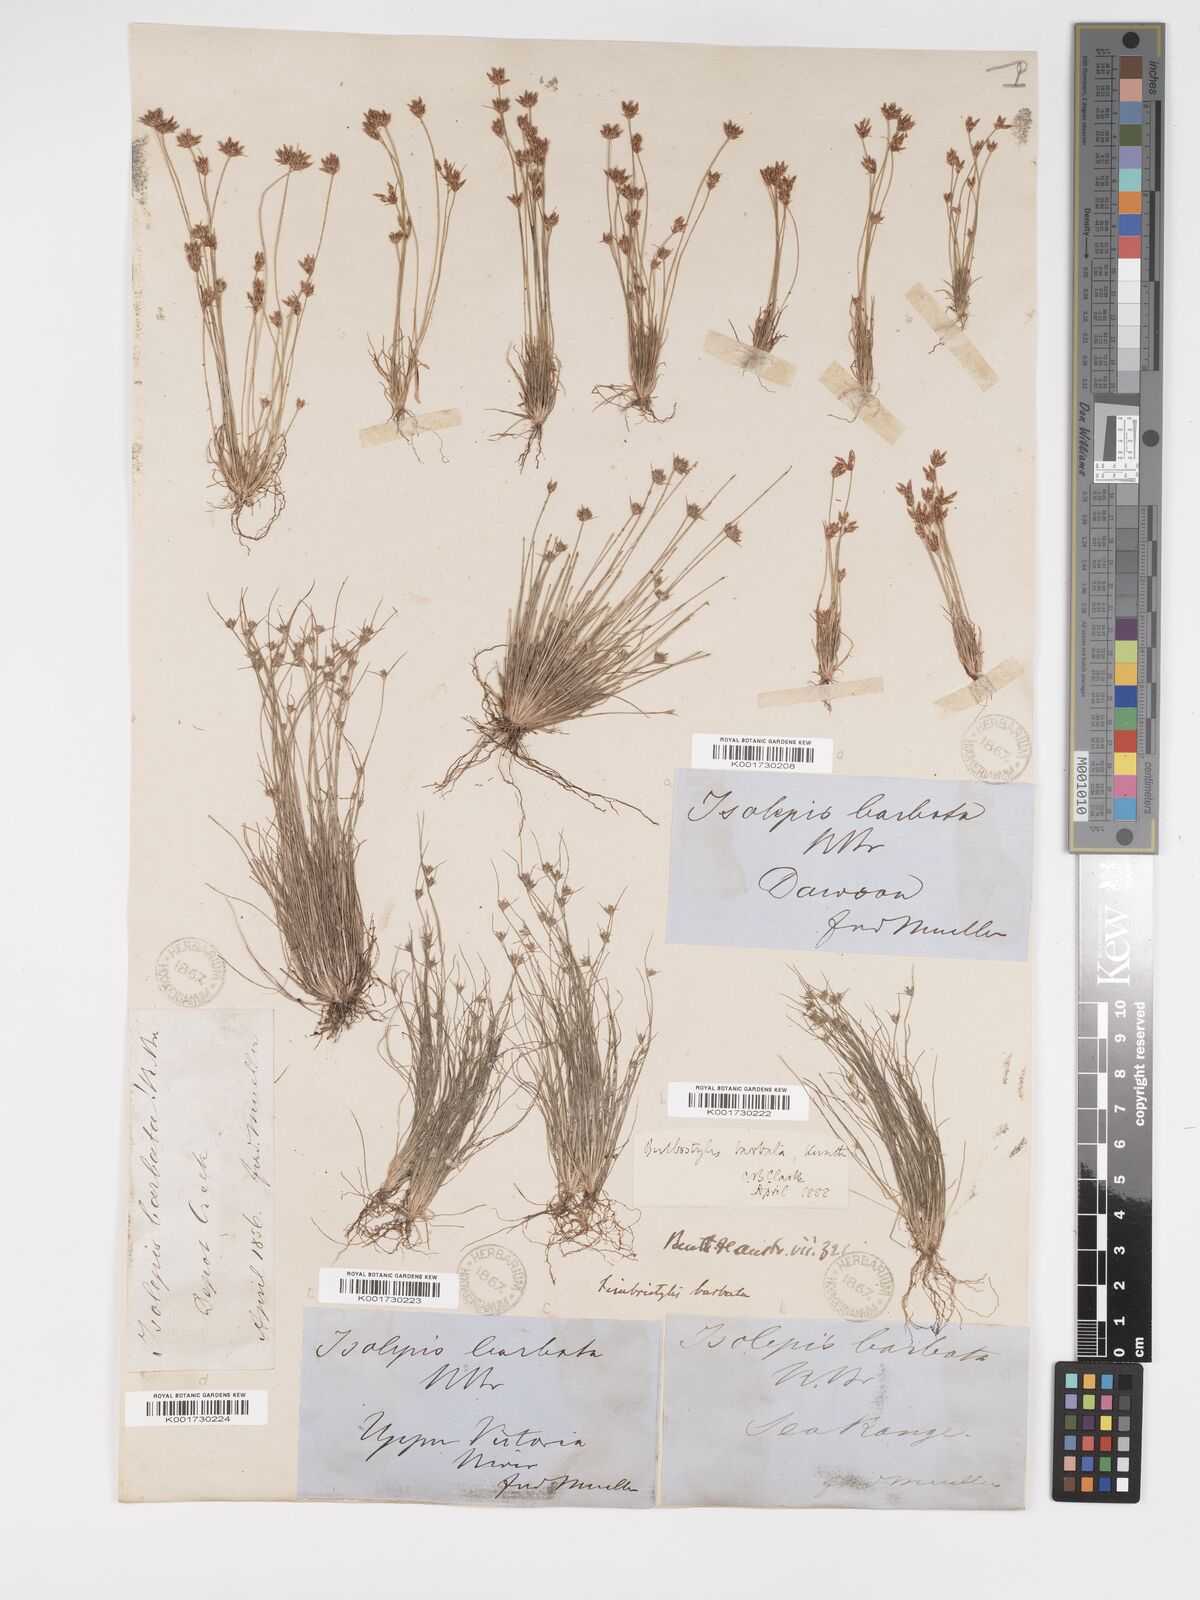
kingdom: Plantae
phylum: Tracheophyta
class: Liliopsida
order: Poales
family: Cyperaceae
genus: Bulbostylis
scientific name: Bulbostylis barbata
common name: Watergrass
